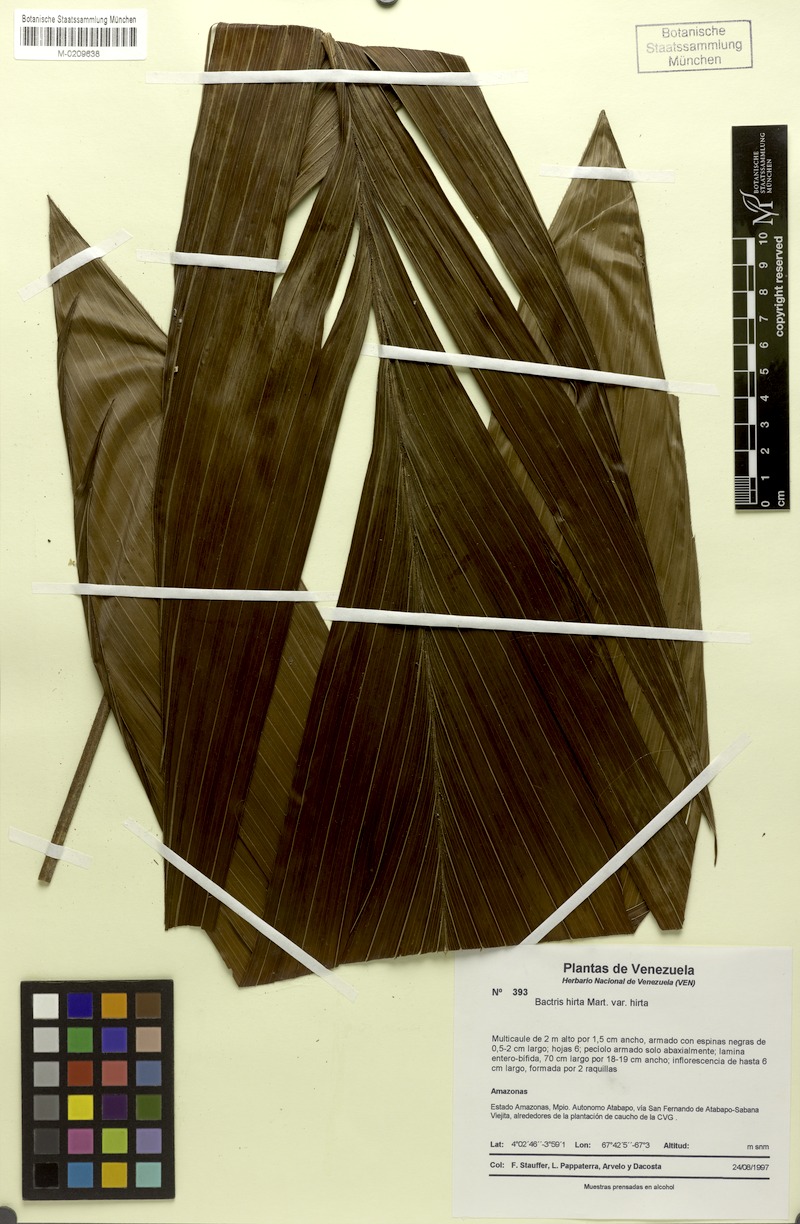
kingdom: Plantae
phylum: Tracheophyta
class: Liliopsida
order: Arecales
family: Arecaceae
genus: Bactris
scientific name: Bactris hirta
